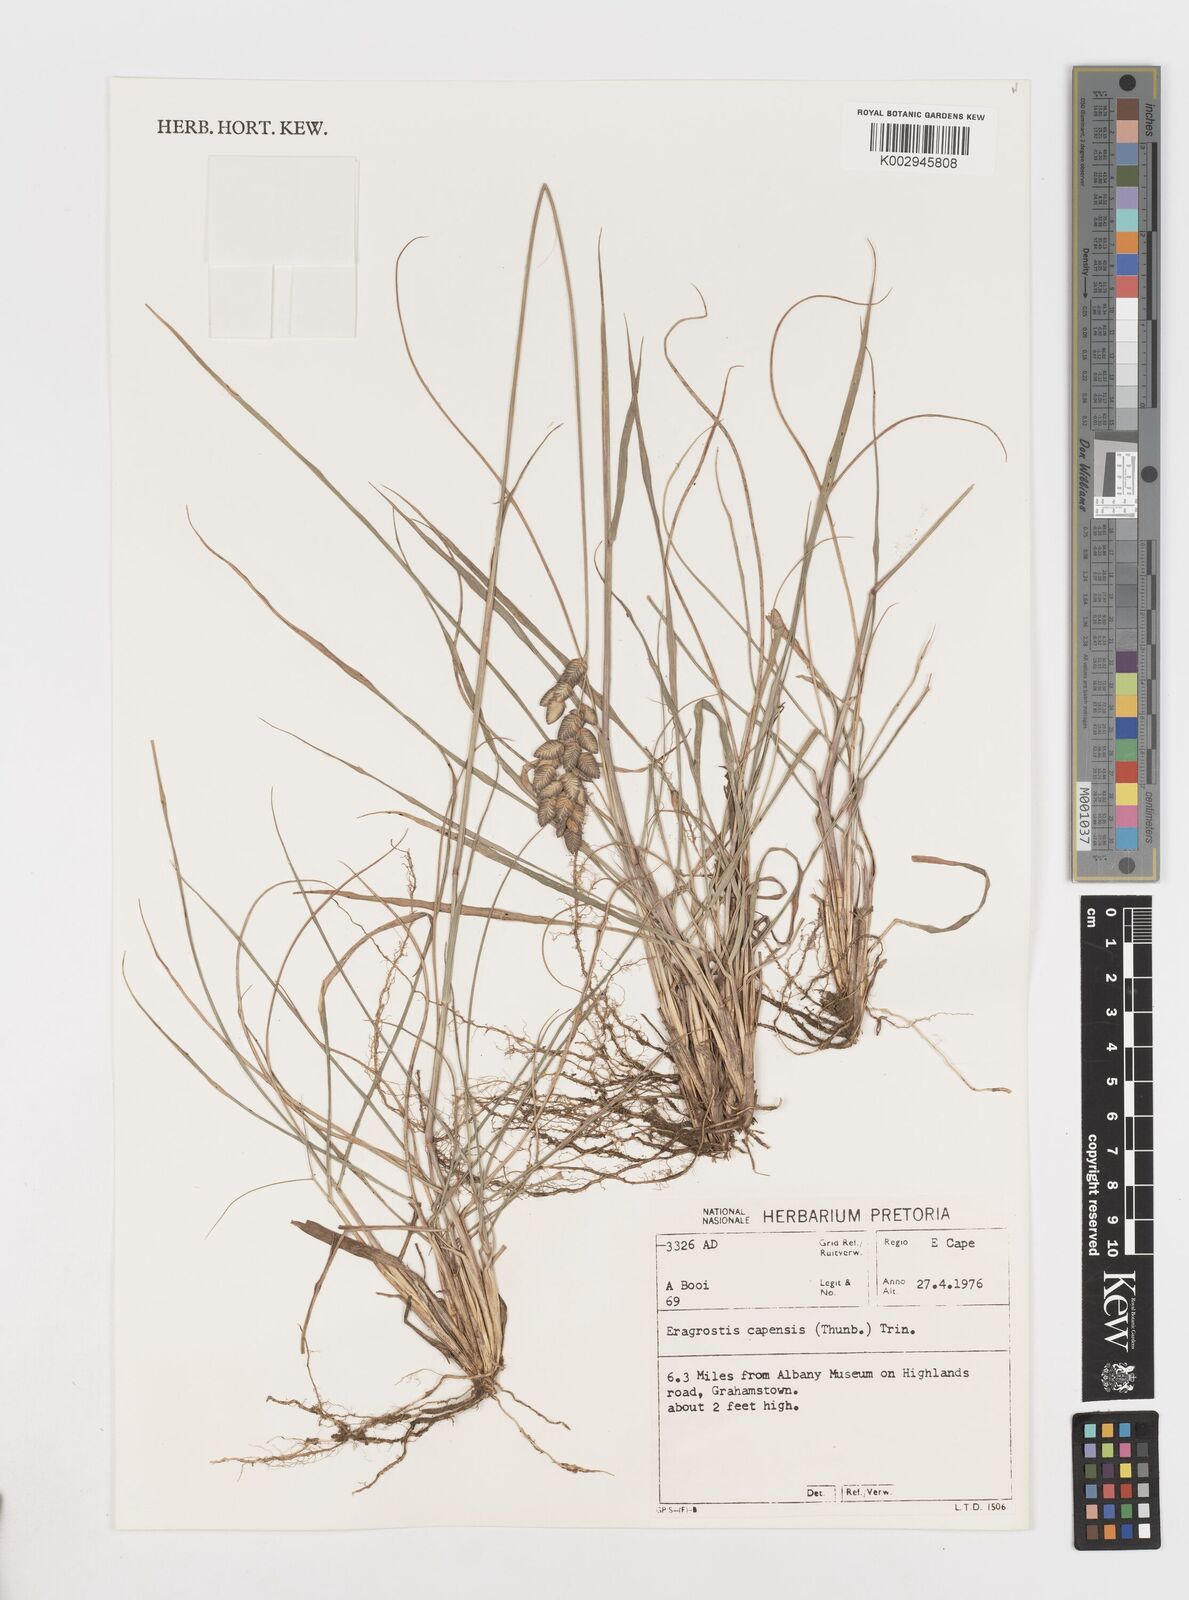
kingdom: Plantae
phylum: Tracheophyta
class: Liliopsida
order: Poales
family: Poaceae
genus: Eragrostis
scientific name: Eragrostis capensis
